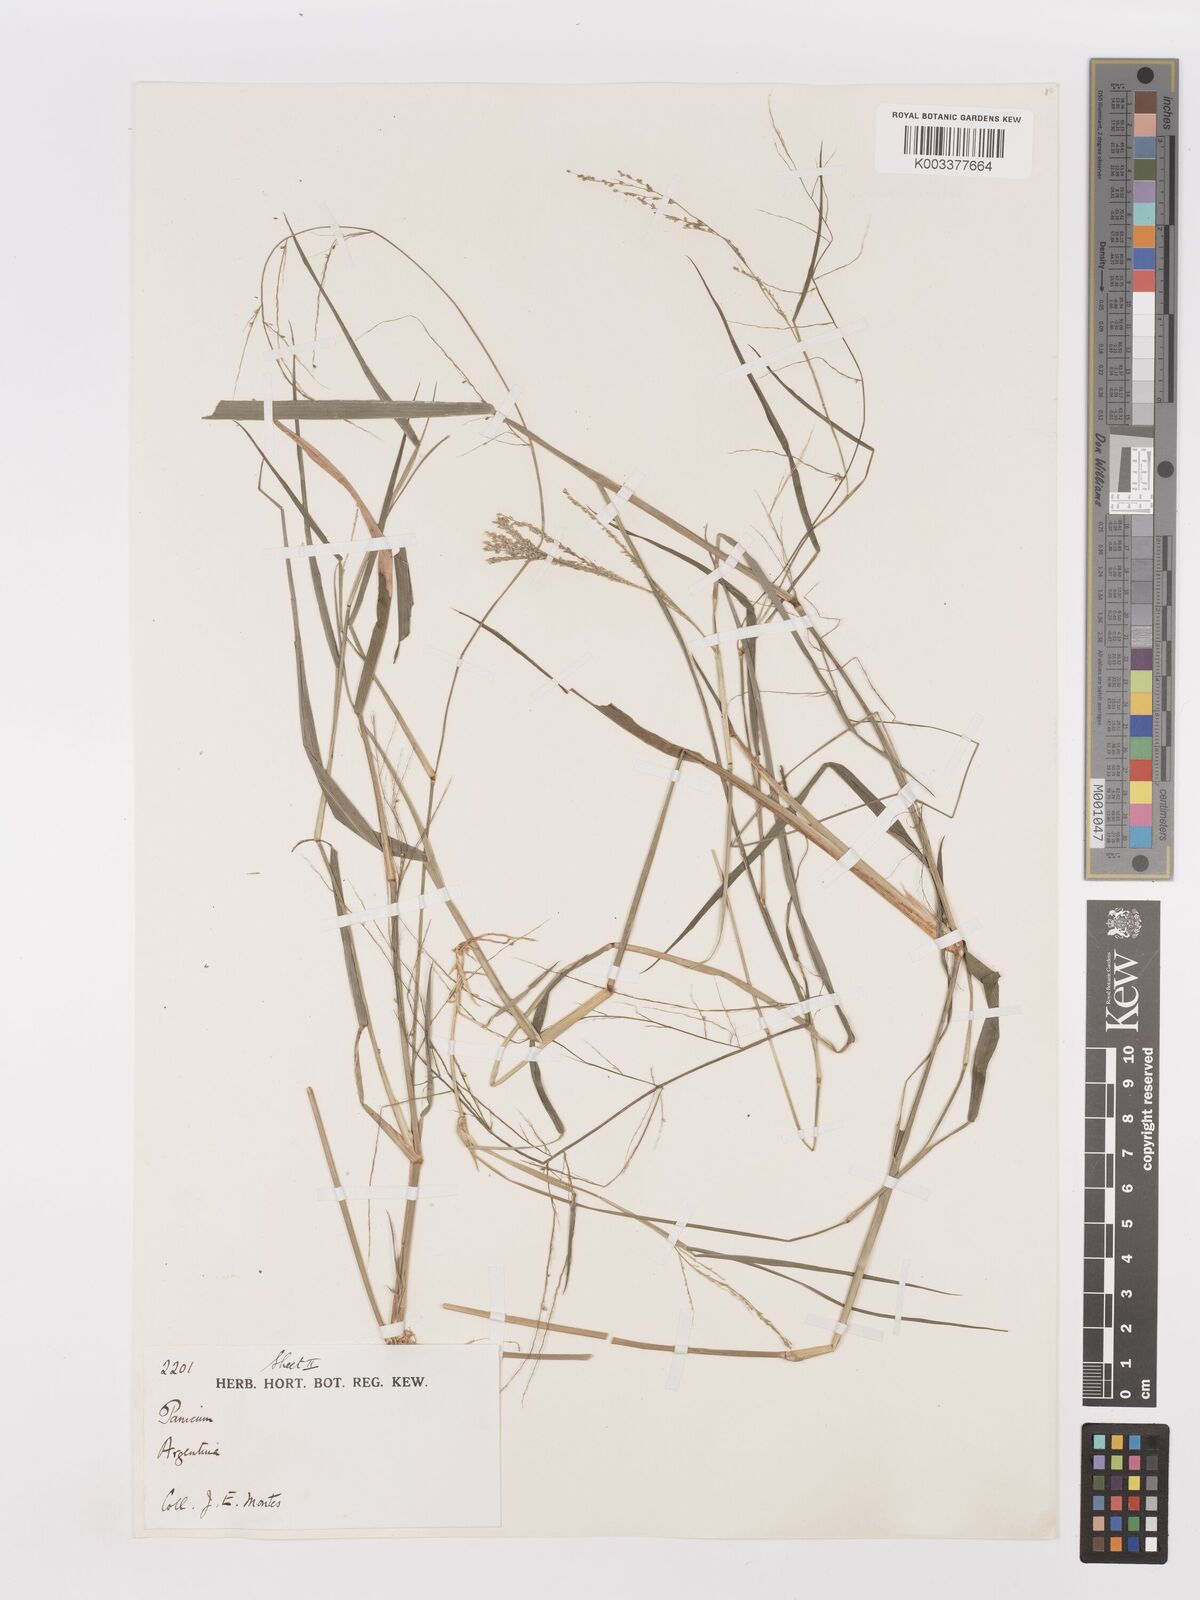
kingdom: Plantae
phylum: Tracheophyta
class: Liliopsida
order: Poales
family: Poaceae
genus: Steinchisma
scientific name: Steinchisma laxum
